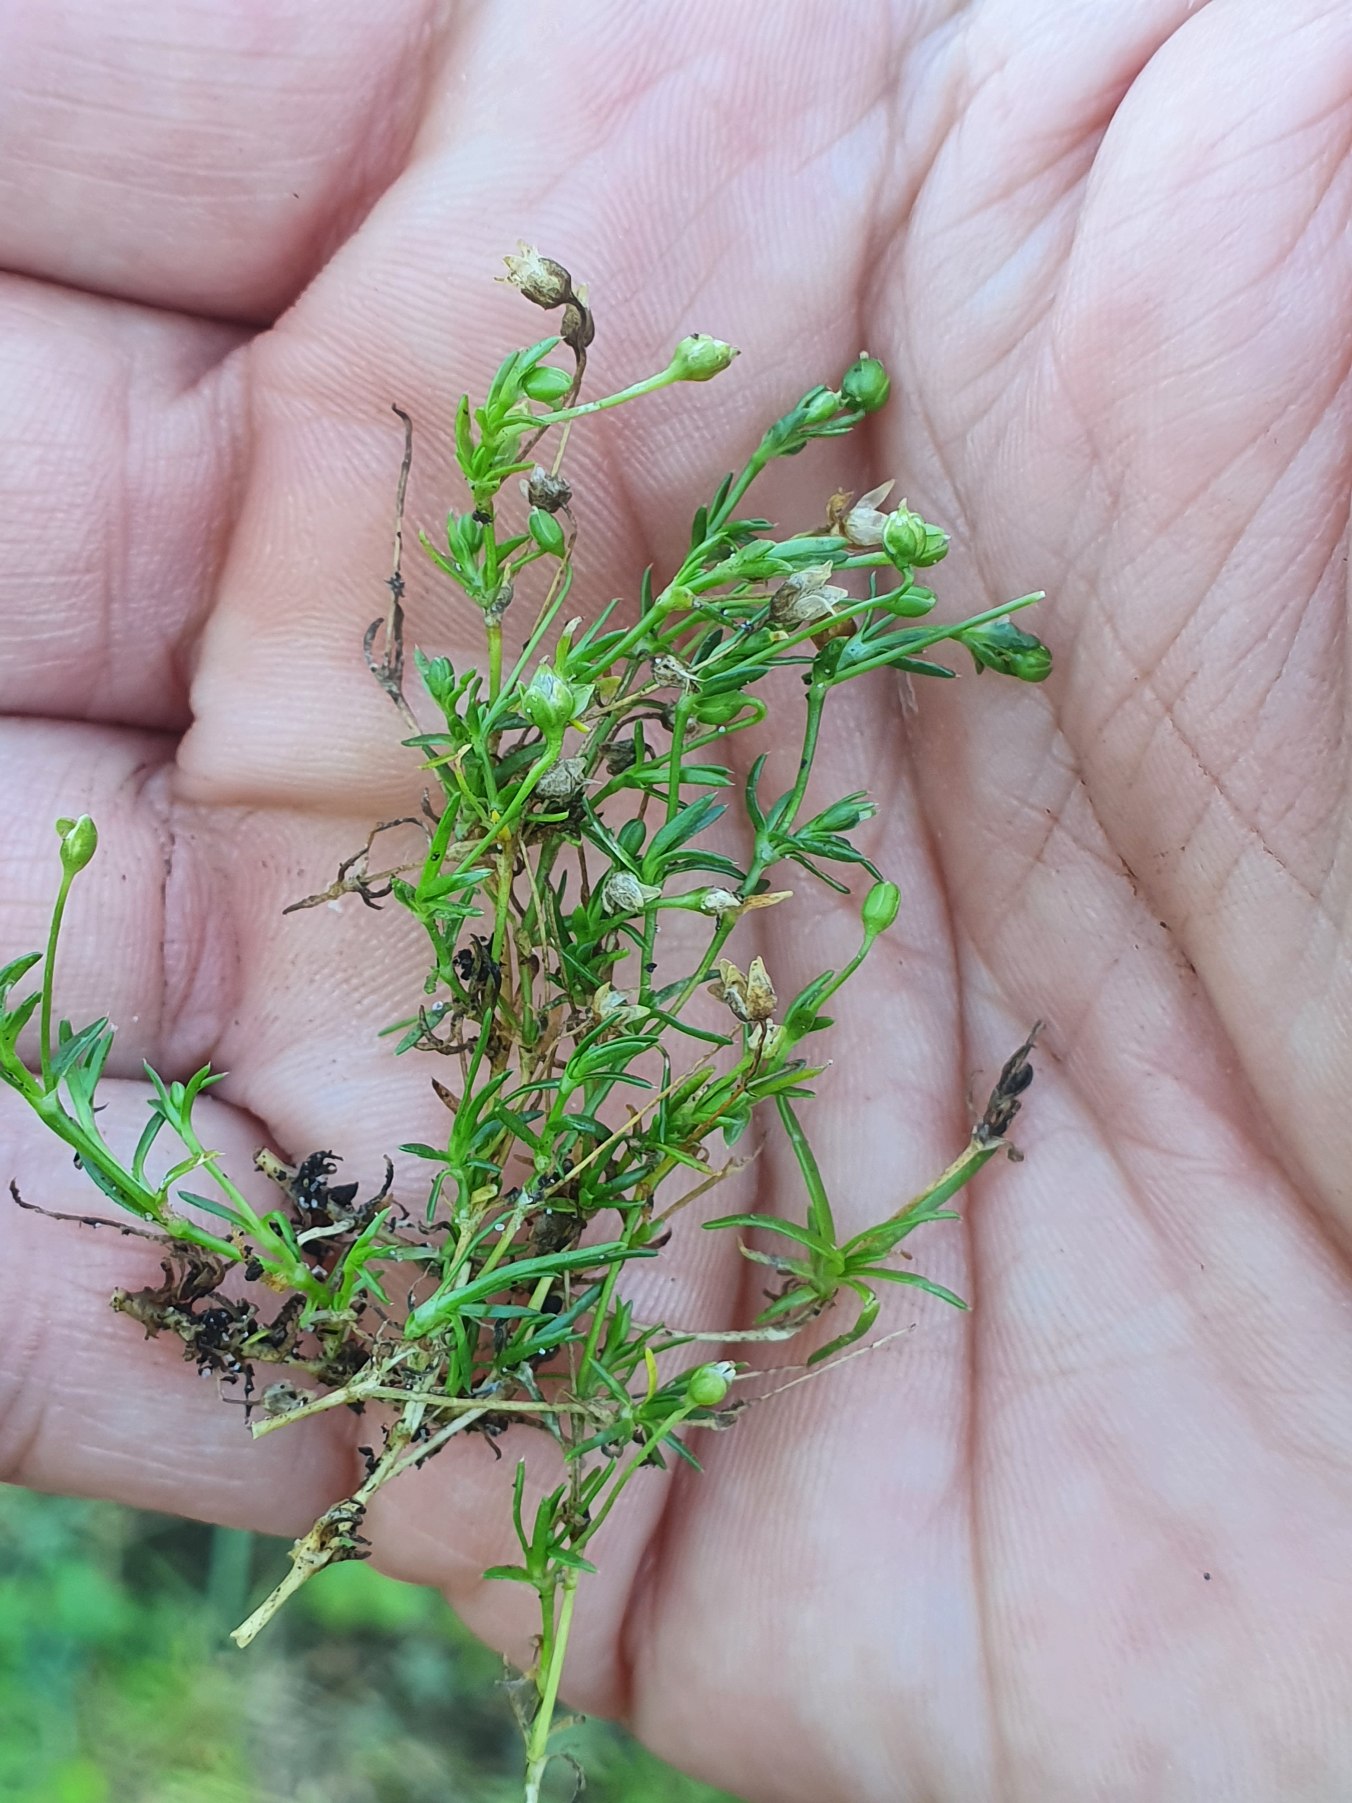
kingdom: Plantae
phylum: Tracheophyta
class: Magnoliopsida
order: Caryophyllales
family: Caryophyllaceae
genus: Sagina
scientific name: Sagina procumbens
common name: Almindelig firling
